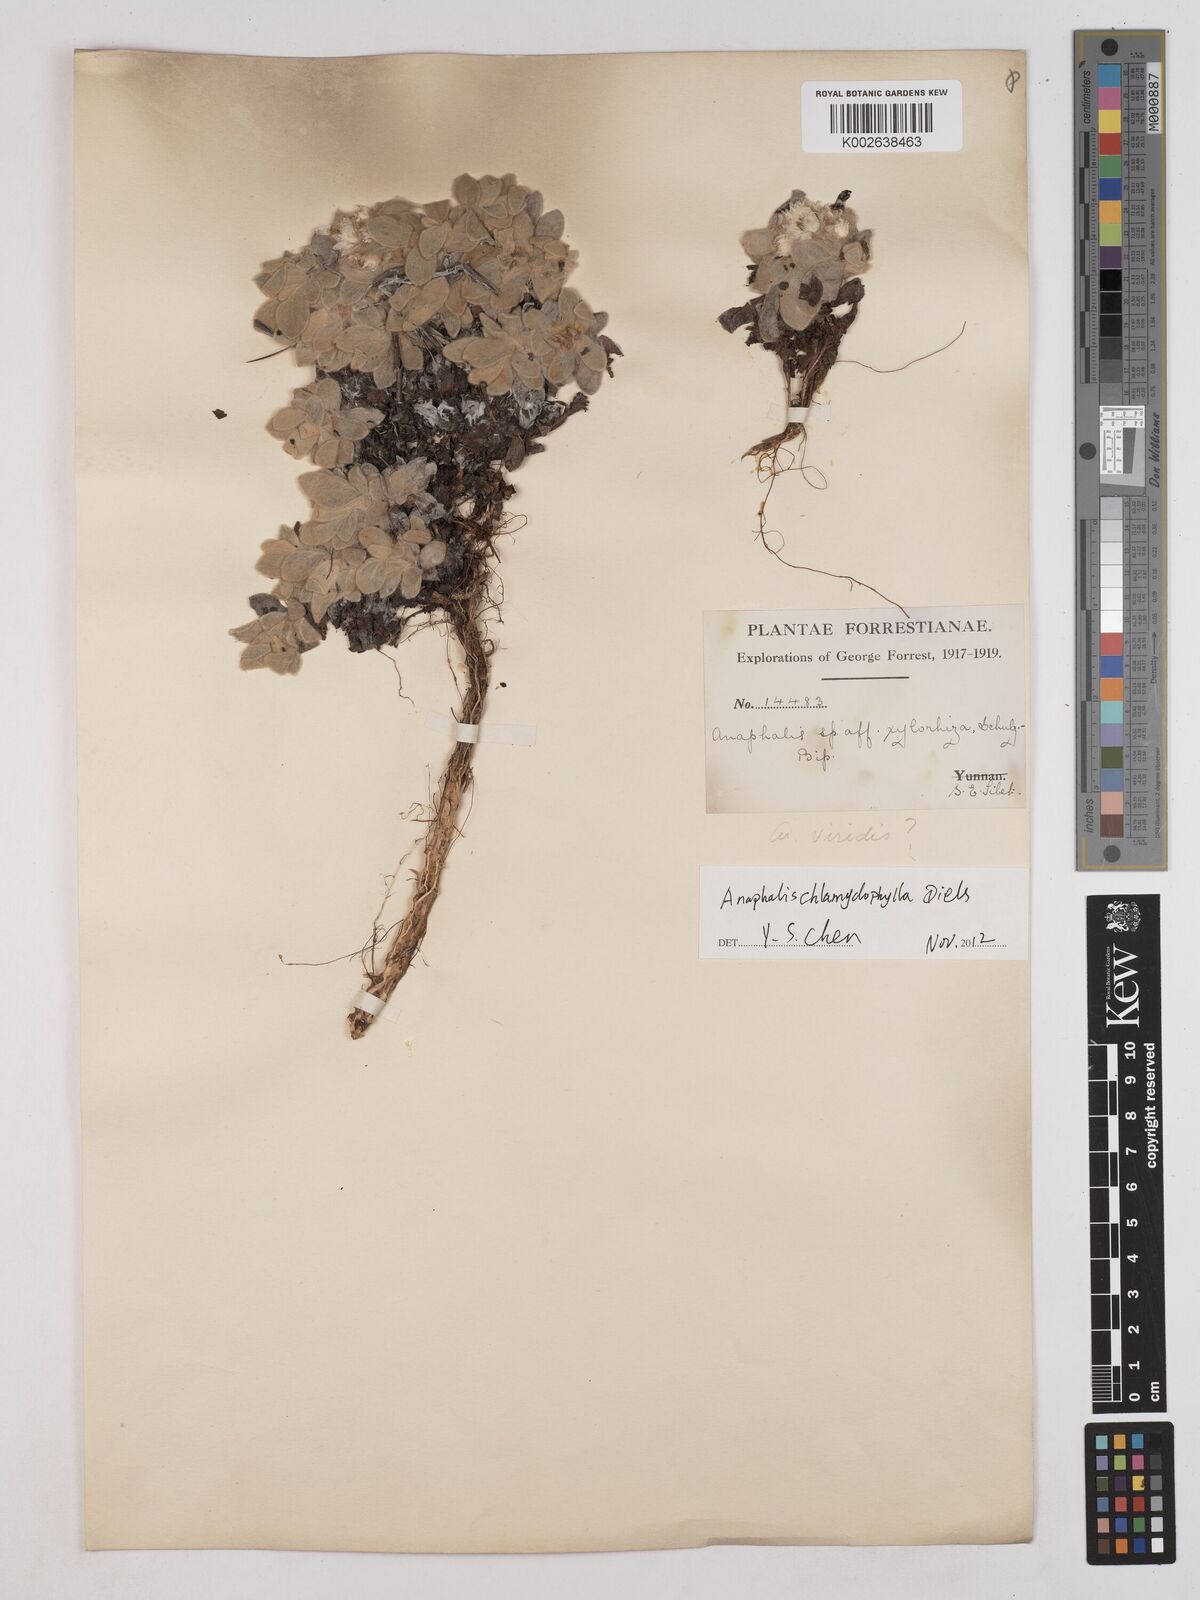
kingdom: Plantae
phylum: Tracheophyta
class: Magnoliopsida
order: Asterales
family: Asteraceae
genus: Anaphalis
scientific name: Anaphalis chlamydophylla
